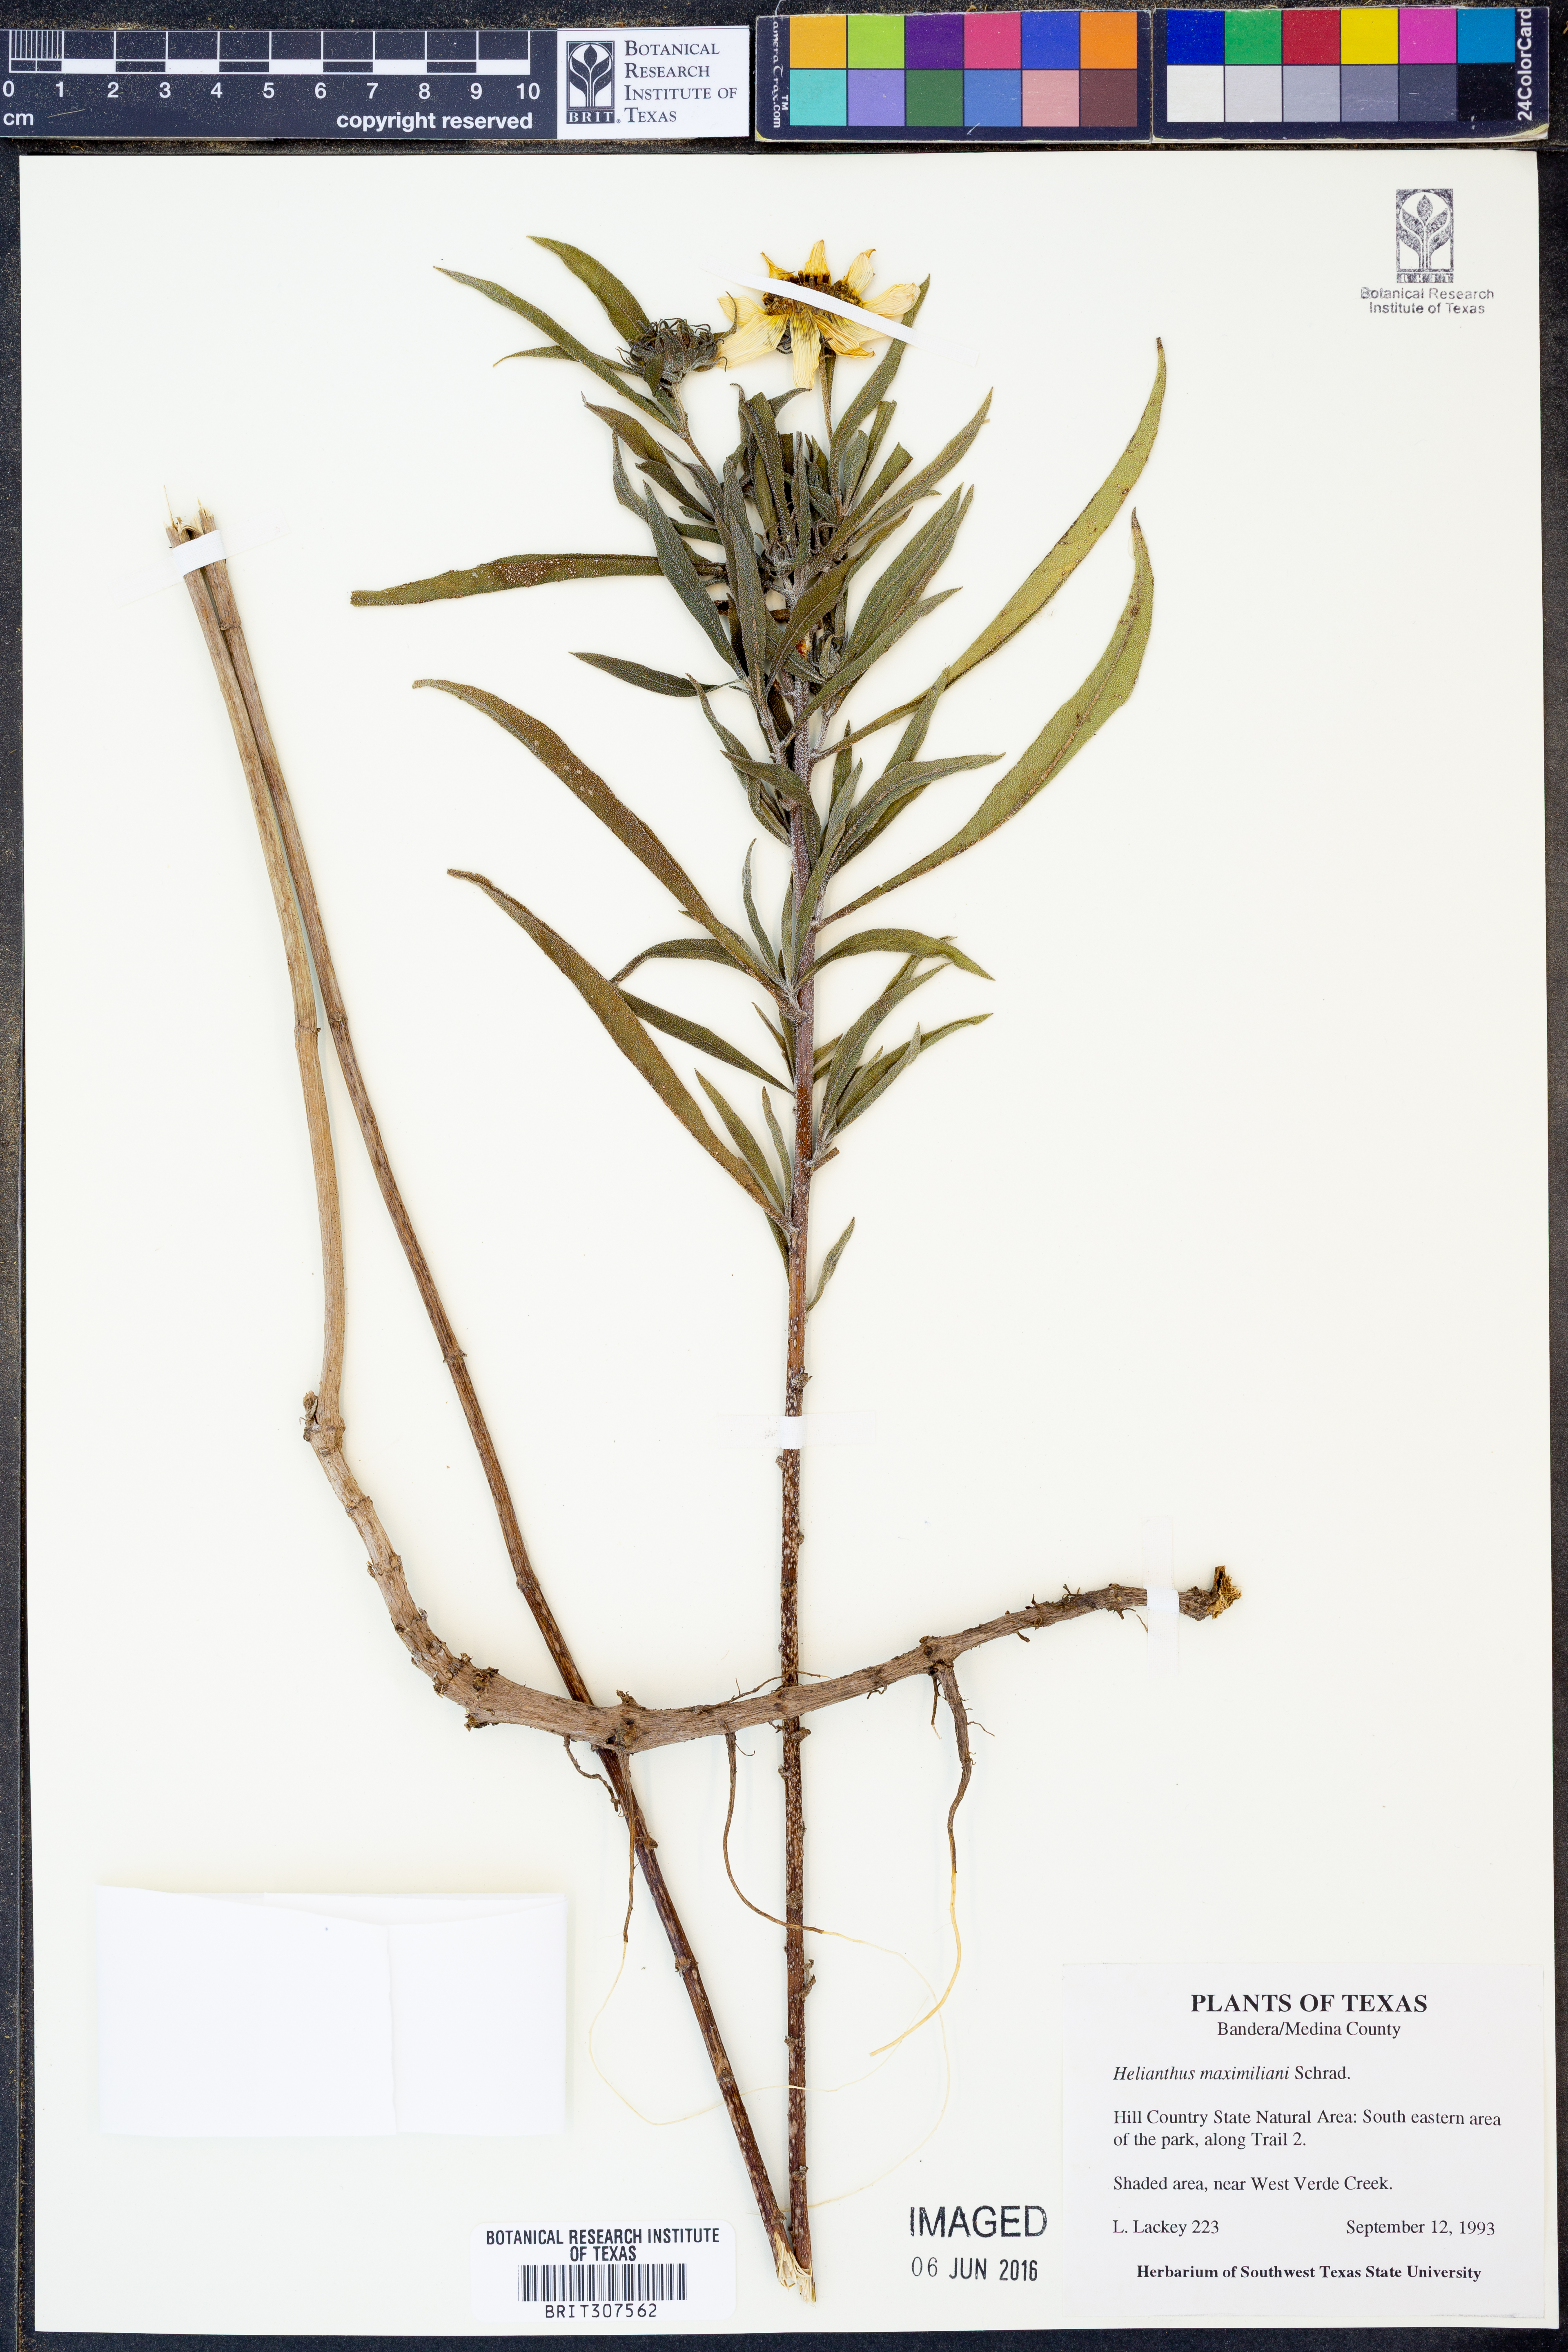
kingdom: Plantae
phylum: Tracheophyta
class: Magnoliopsida
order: Asterales
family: Asteraceae
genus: Helianthus
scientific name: Helianthus maximiliani
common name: Maximilian's sunflower
